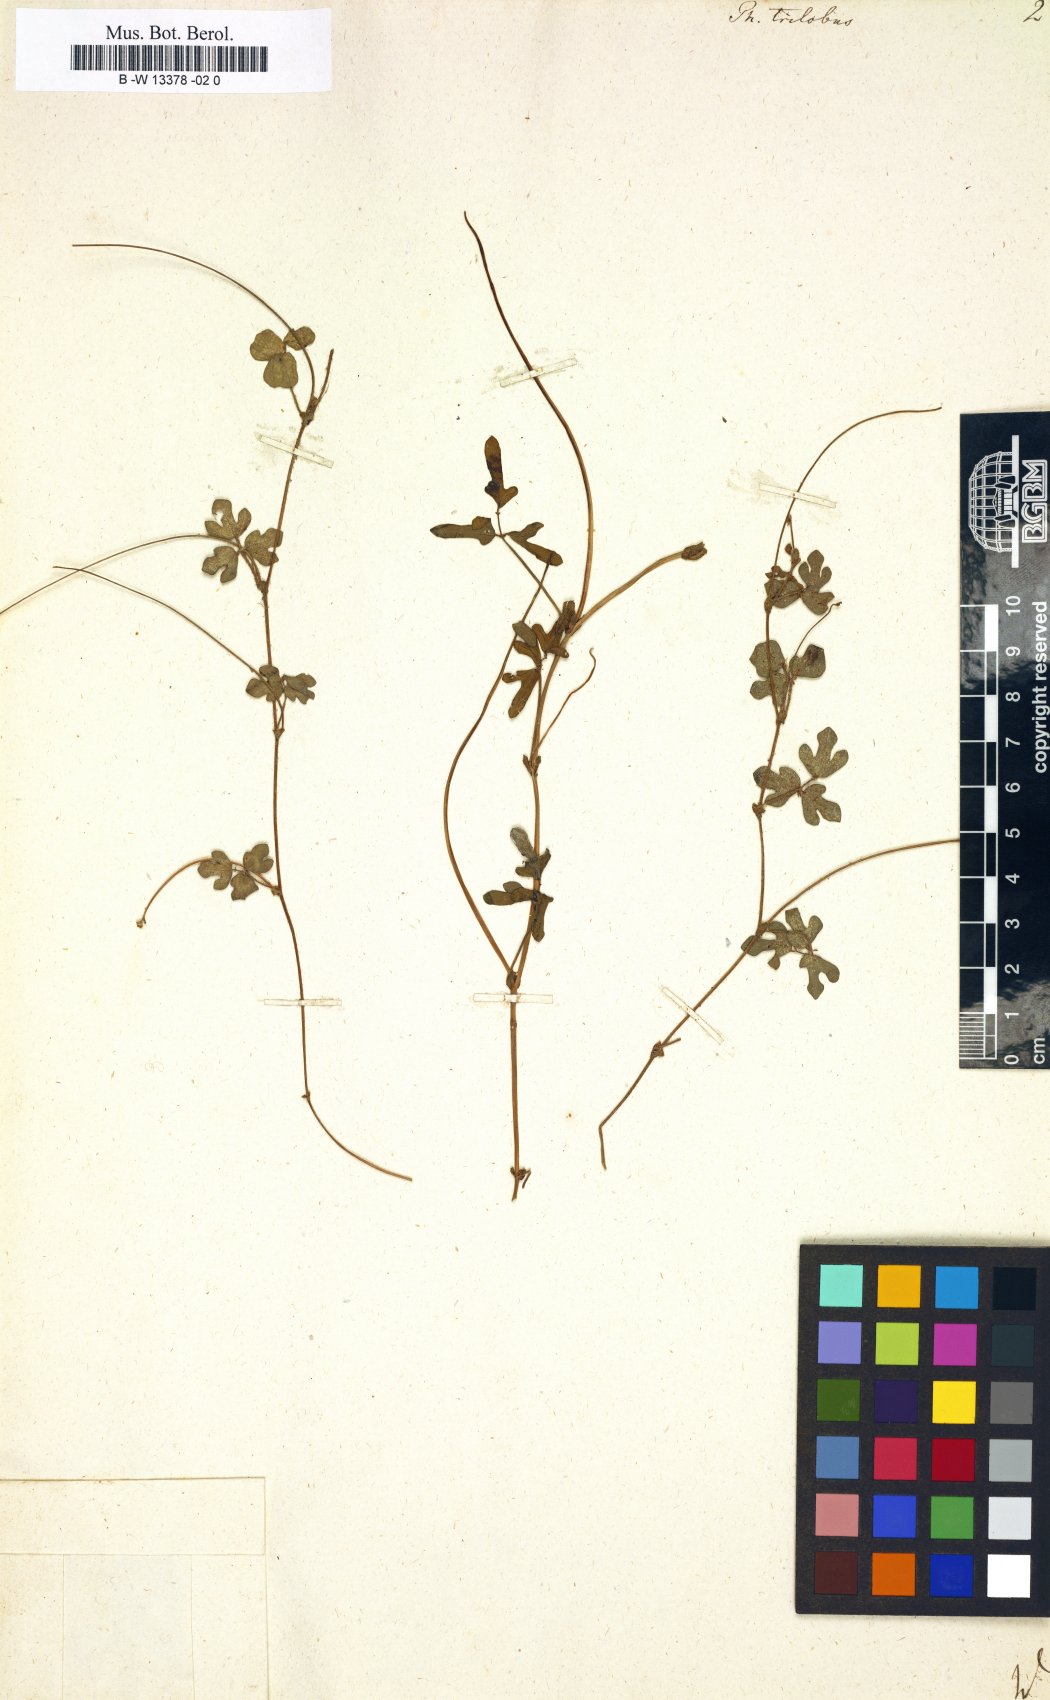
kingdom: Plantae
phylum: Tracheophyta
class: Magnoliopsida
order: Fabales
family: Fabaceae
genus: Pueraria
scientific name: Pueraria montana
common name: Kudzu
